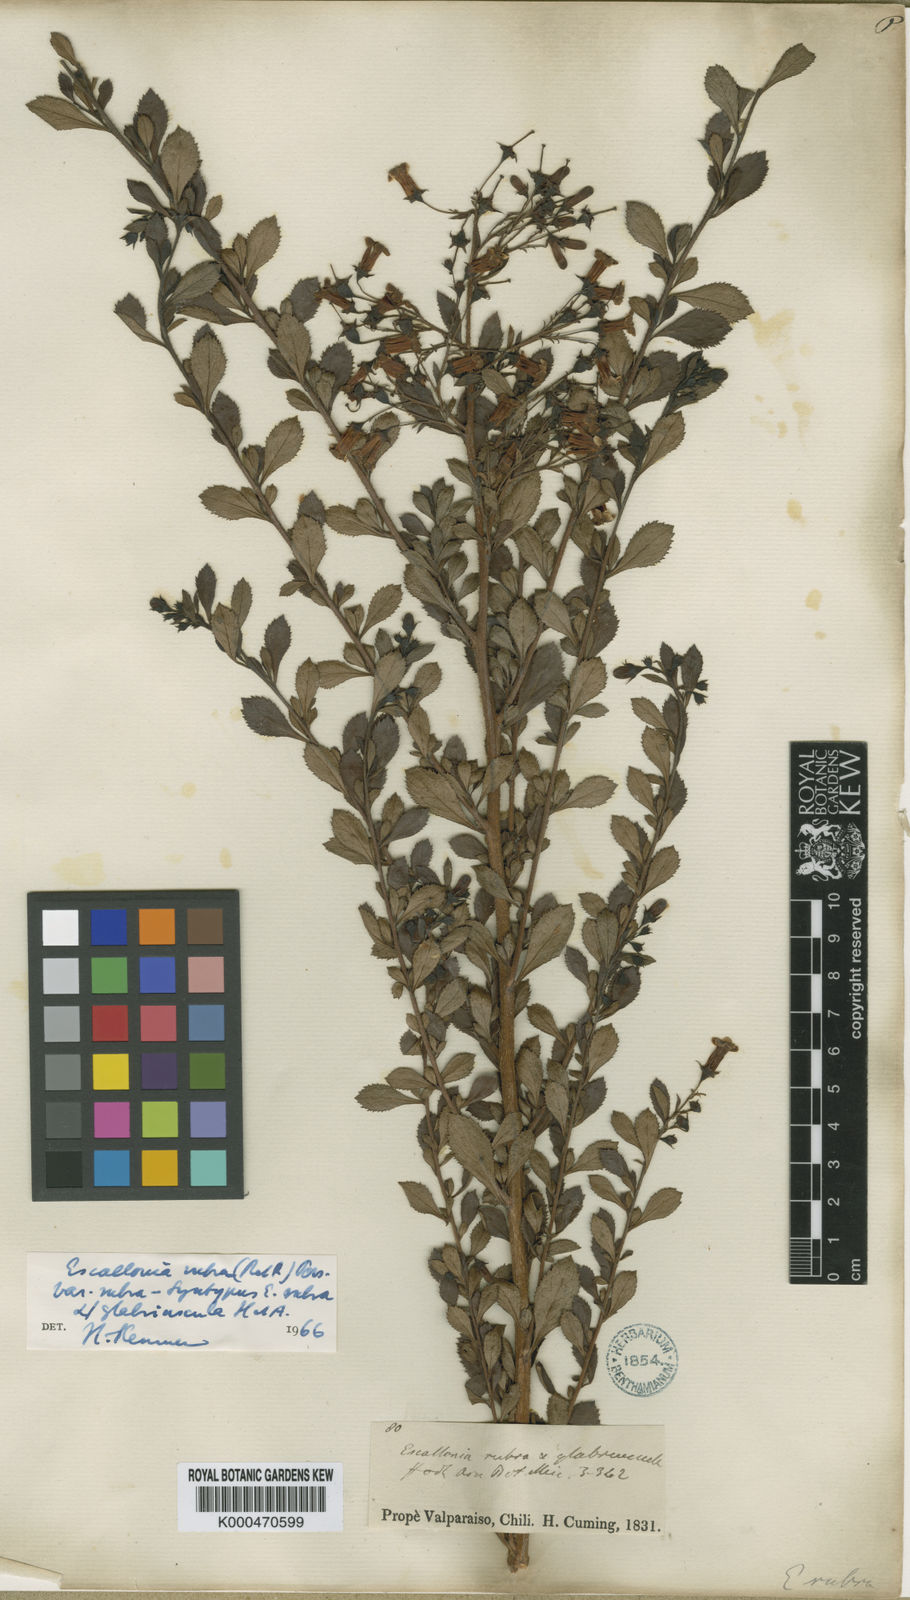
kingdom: Plantae
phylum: Tracheophyta
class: Magnoliopsida
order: Escalloniales
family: Escalloniaceae
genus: Escallonia
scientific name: Escallonia rubra
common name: Redclaws
